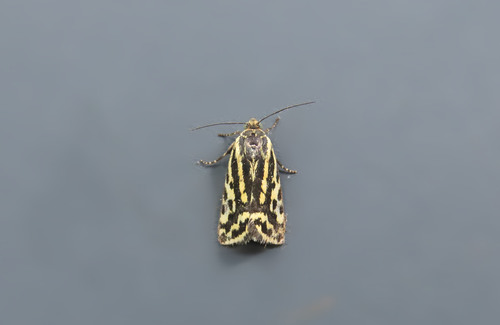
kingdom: Animalia
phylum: Arthropoda
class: Insecta
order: Lepidoptera
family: Noctuidae
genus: Acontia
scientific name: Acontia trabealis
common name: Spotted sulphur
